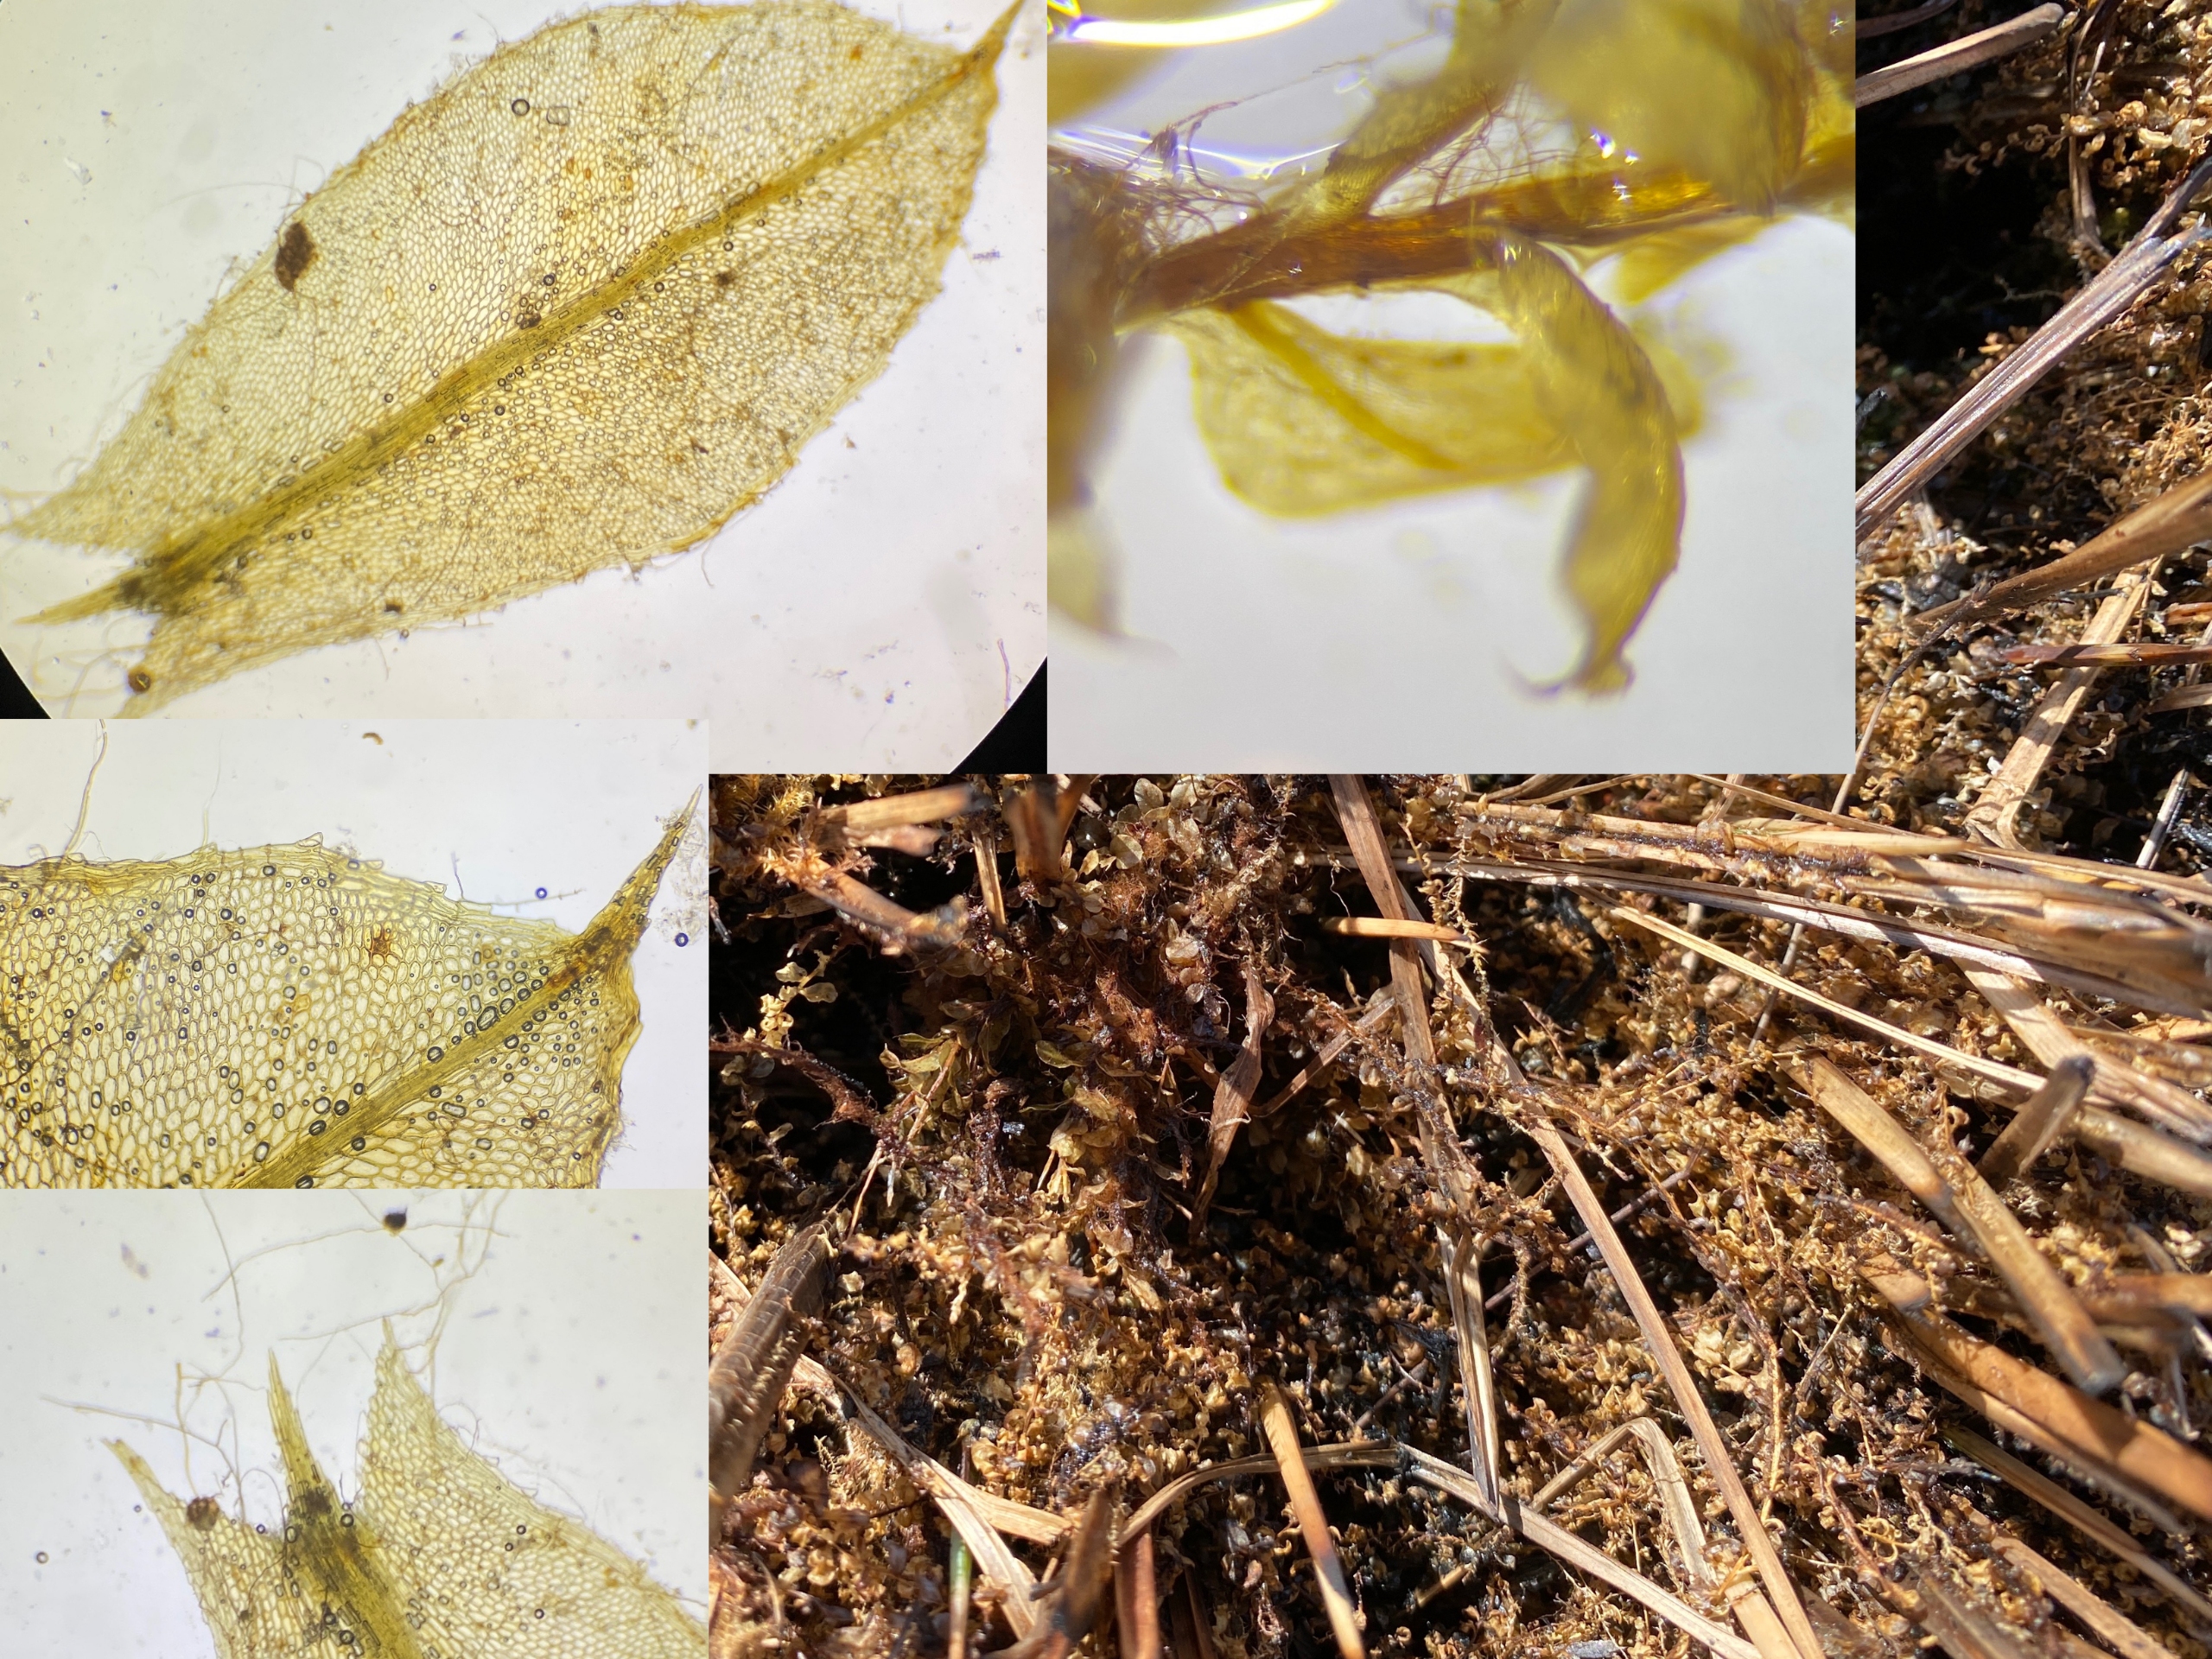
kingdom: Plantae
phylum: Bryophyta
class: Bryopsida
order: Bryales
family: Mniaceae
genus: Plagiomnium
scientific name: Plagiomnium elatum
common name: Raslende krybstjerne
